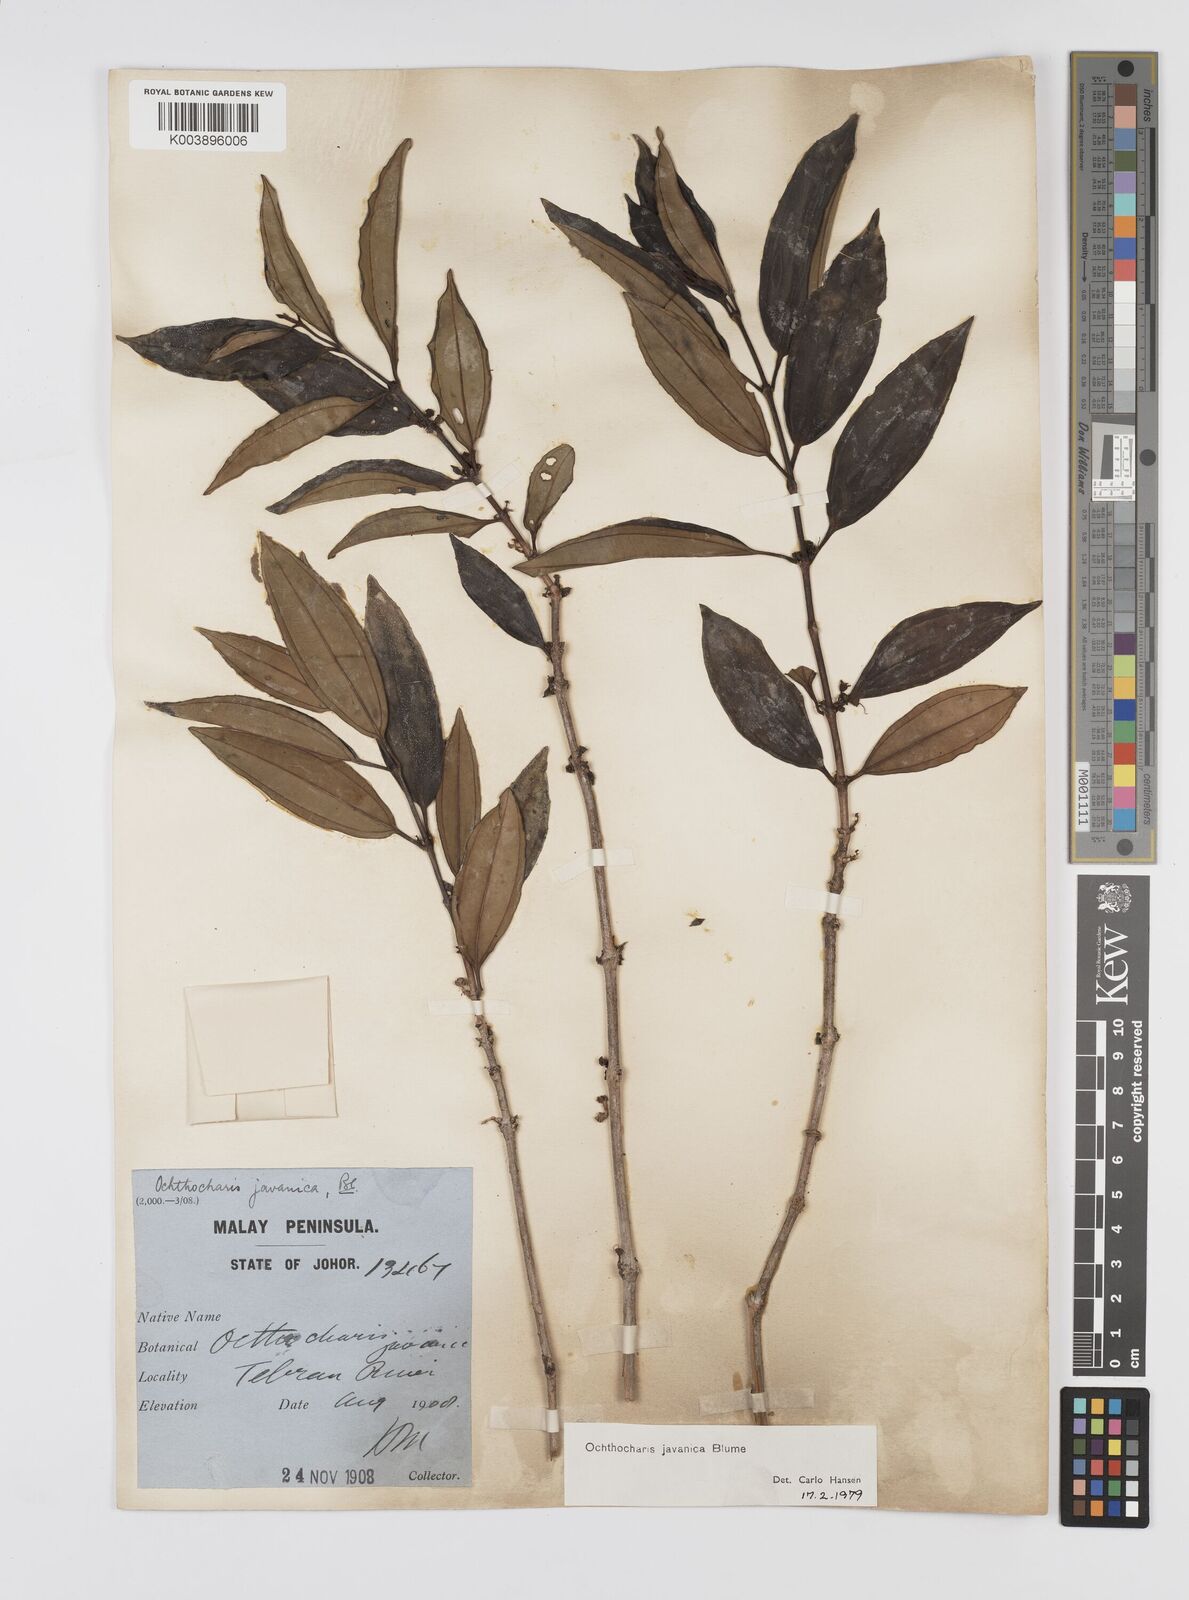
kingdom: Plantae
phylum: Tracheophyta
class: Magnoliopsida
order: Myrtales
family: Melastomataceae
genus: Ochthocharis
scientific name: Ochthocharis javanica
